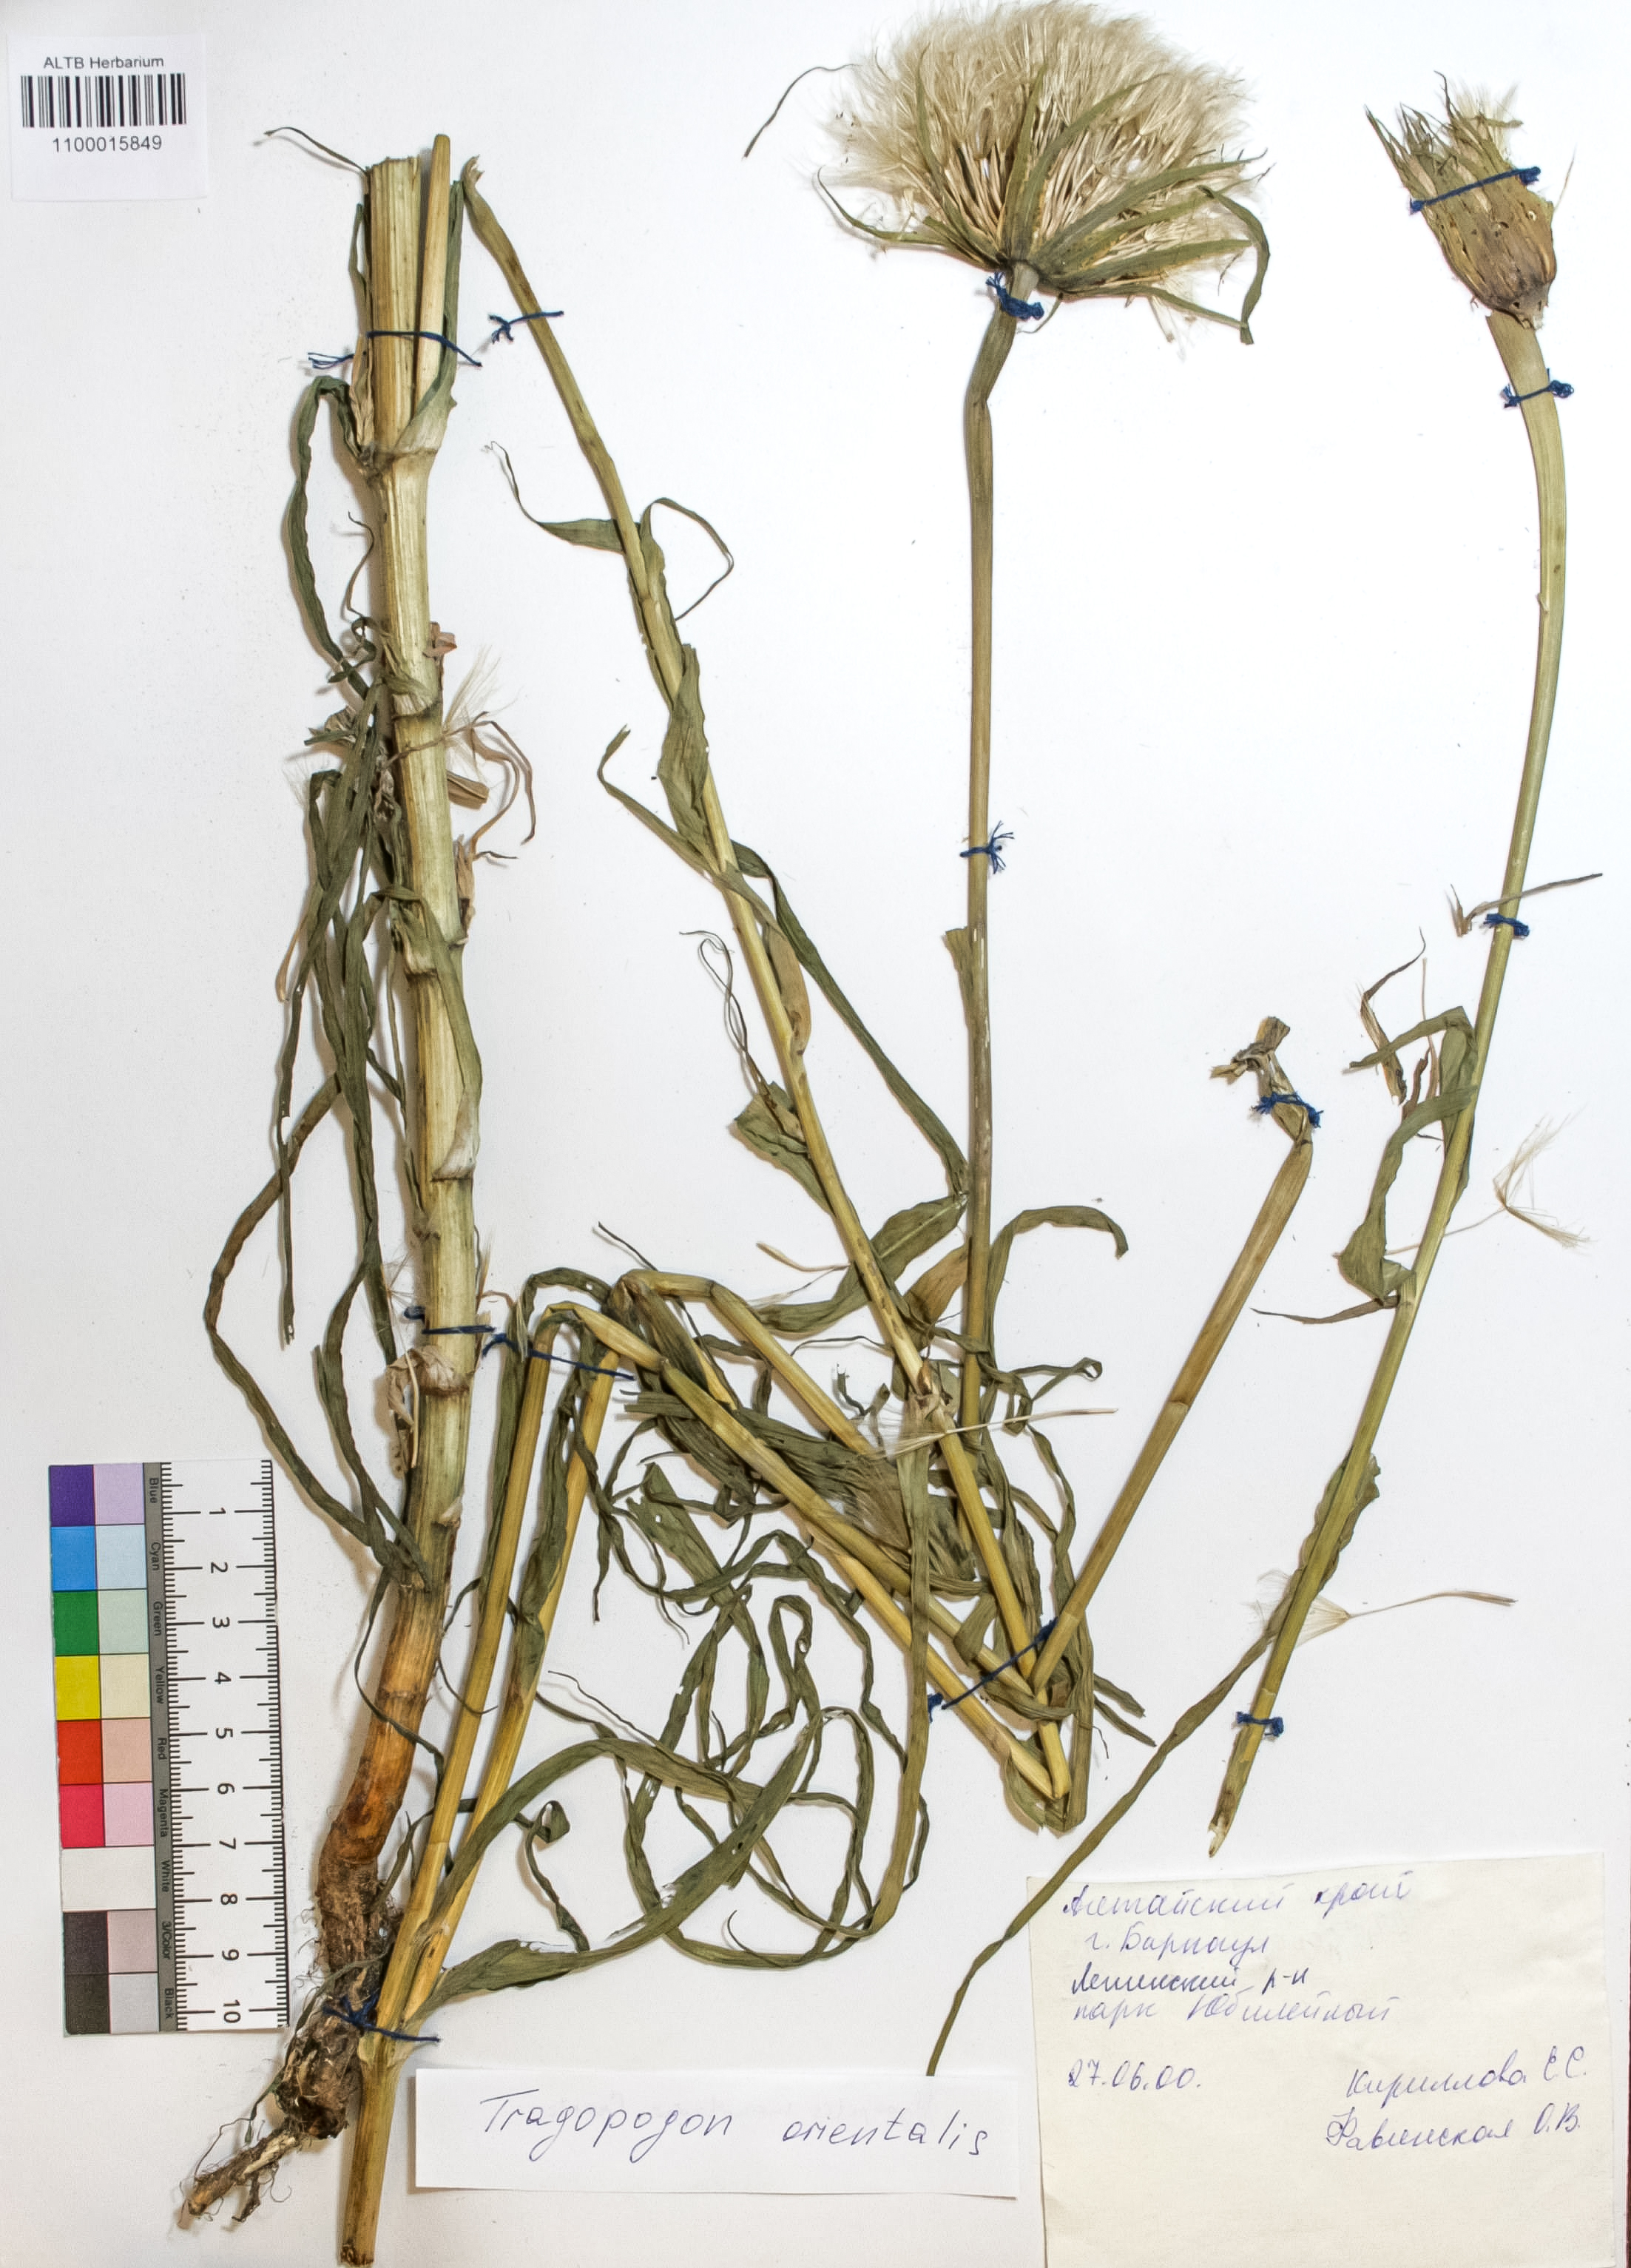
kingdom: Plantae
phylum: Tracheophyta
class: Magnoliopsida
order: Asterales
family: Asteraceae
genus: Tragopogon
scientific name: Tragopogon orientalis
